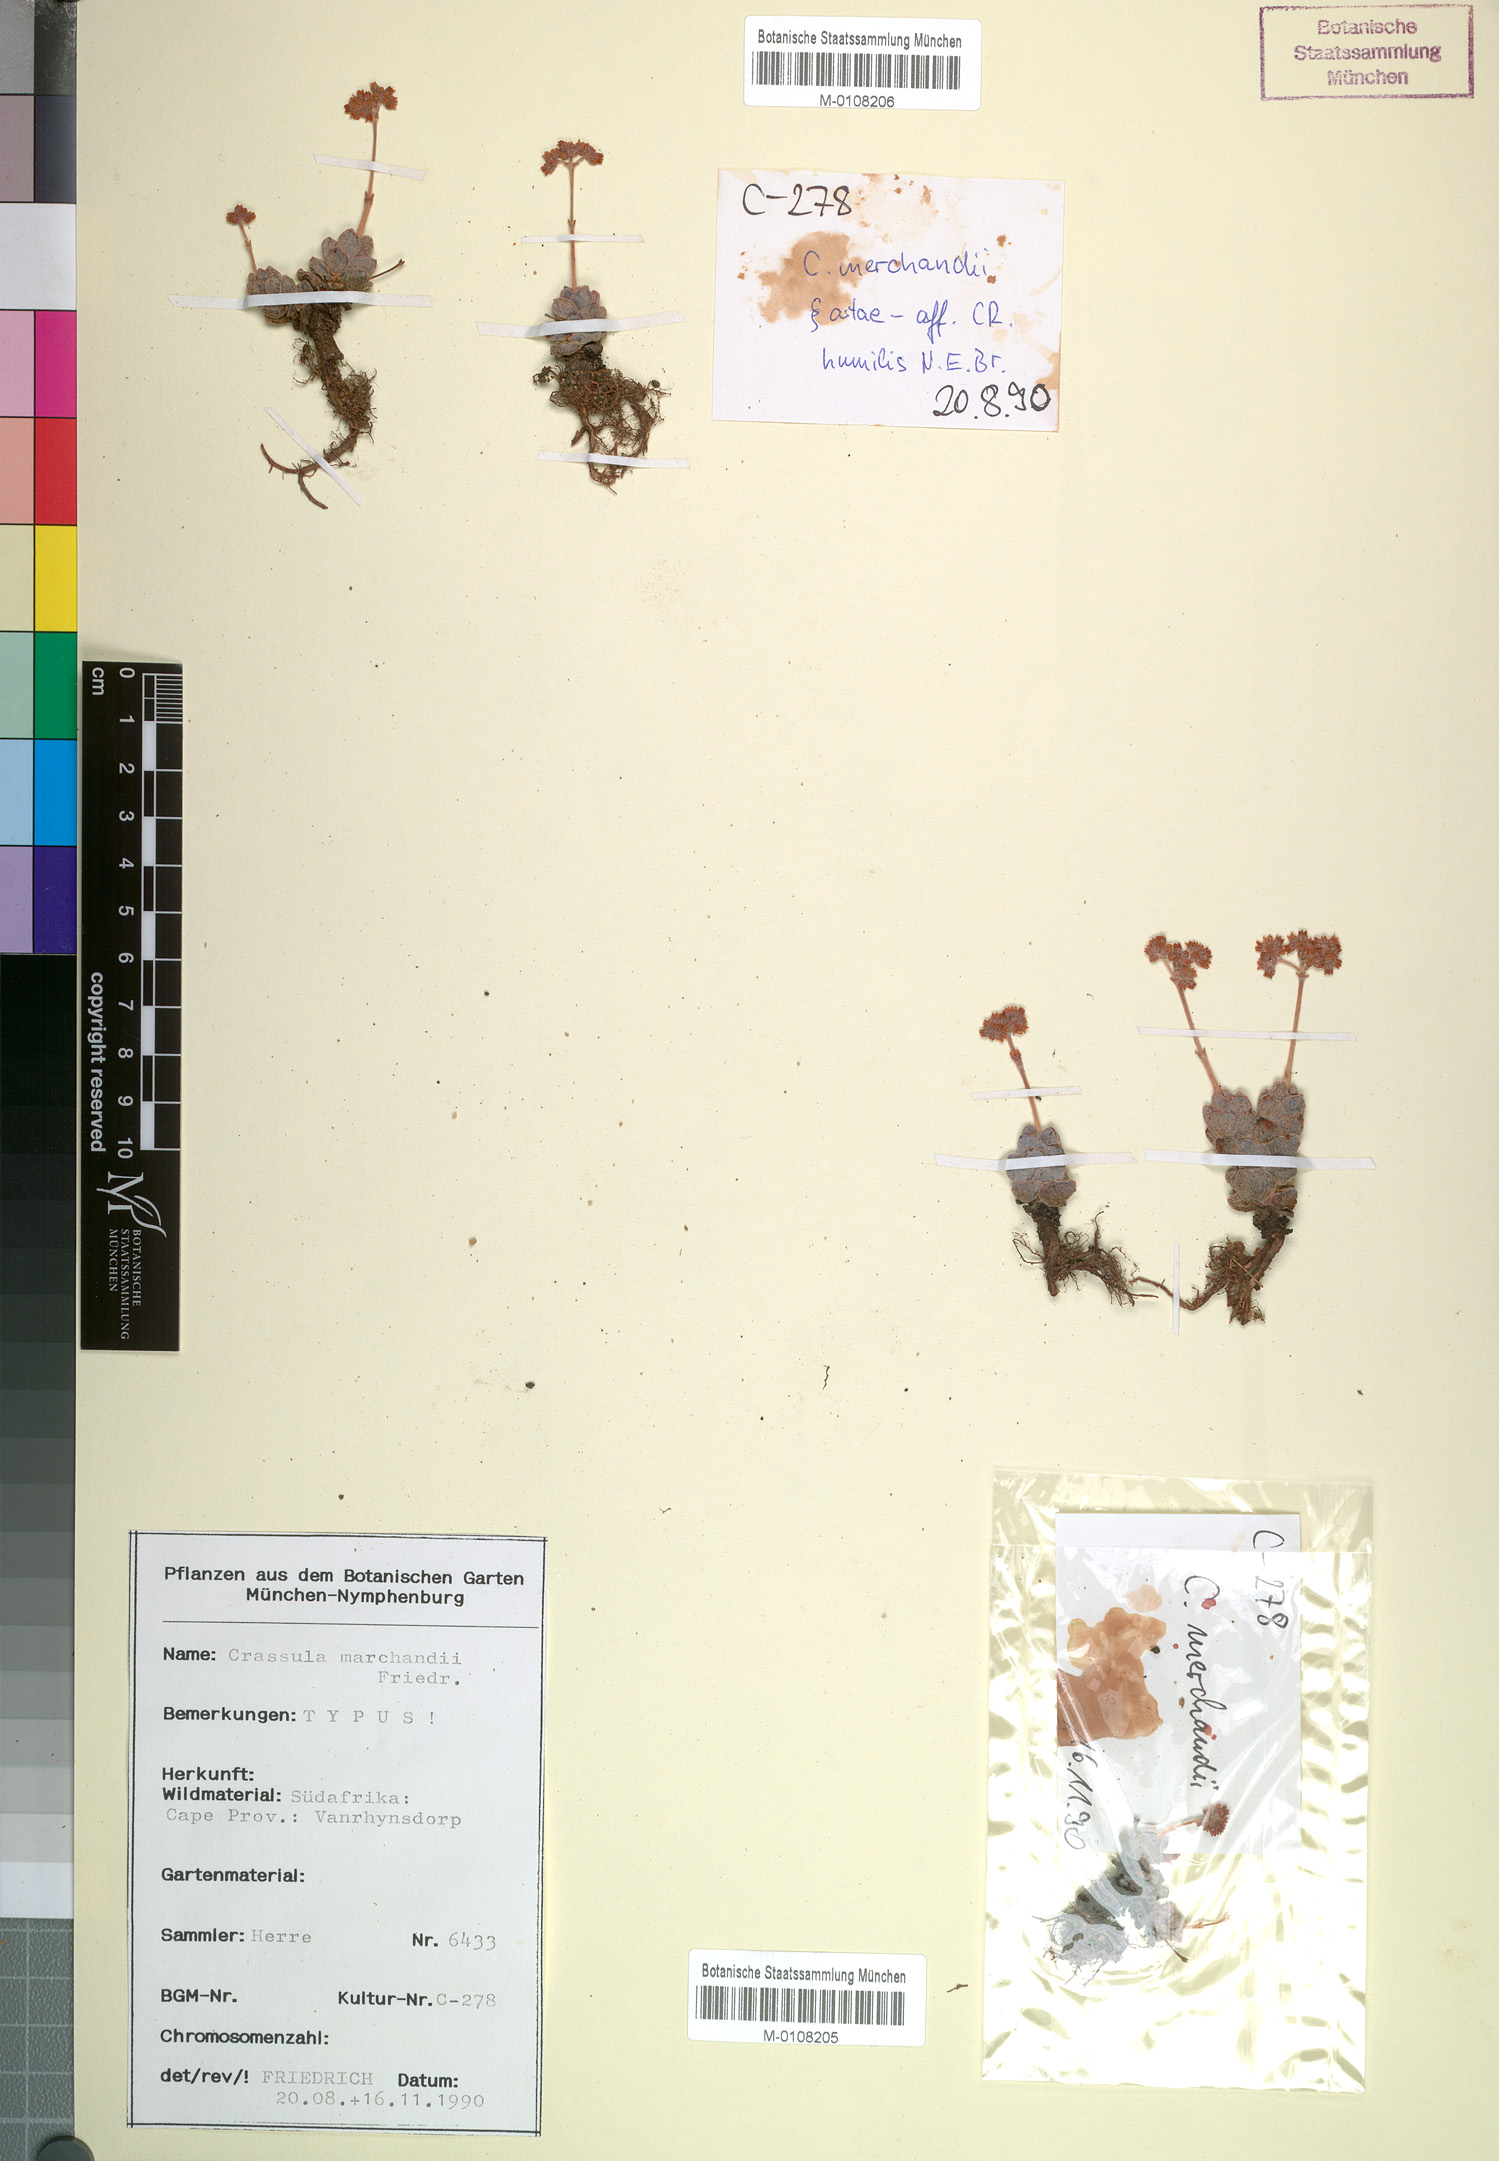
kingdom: Plantae
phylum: Tracheophyta
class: Magnoliopsida
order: Saxifragales
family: Crassulaceae
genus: Crassula
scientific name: Crassula marchandii
